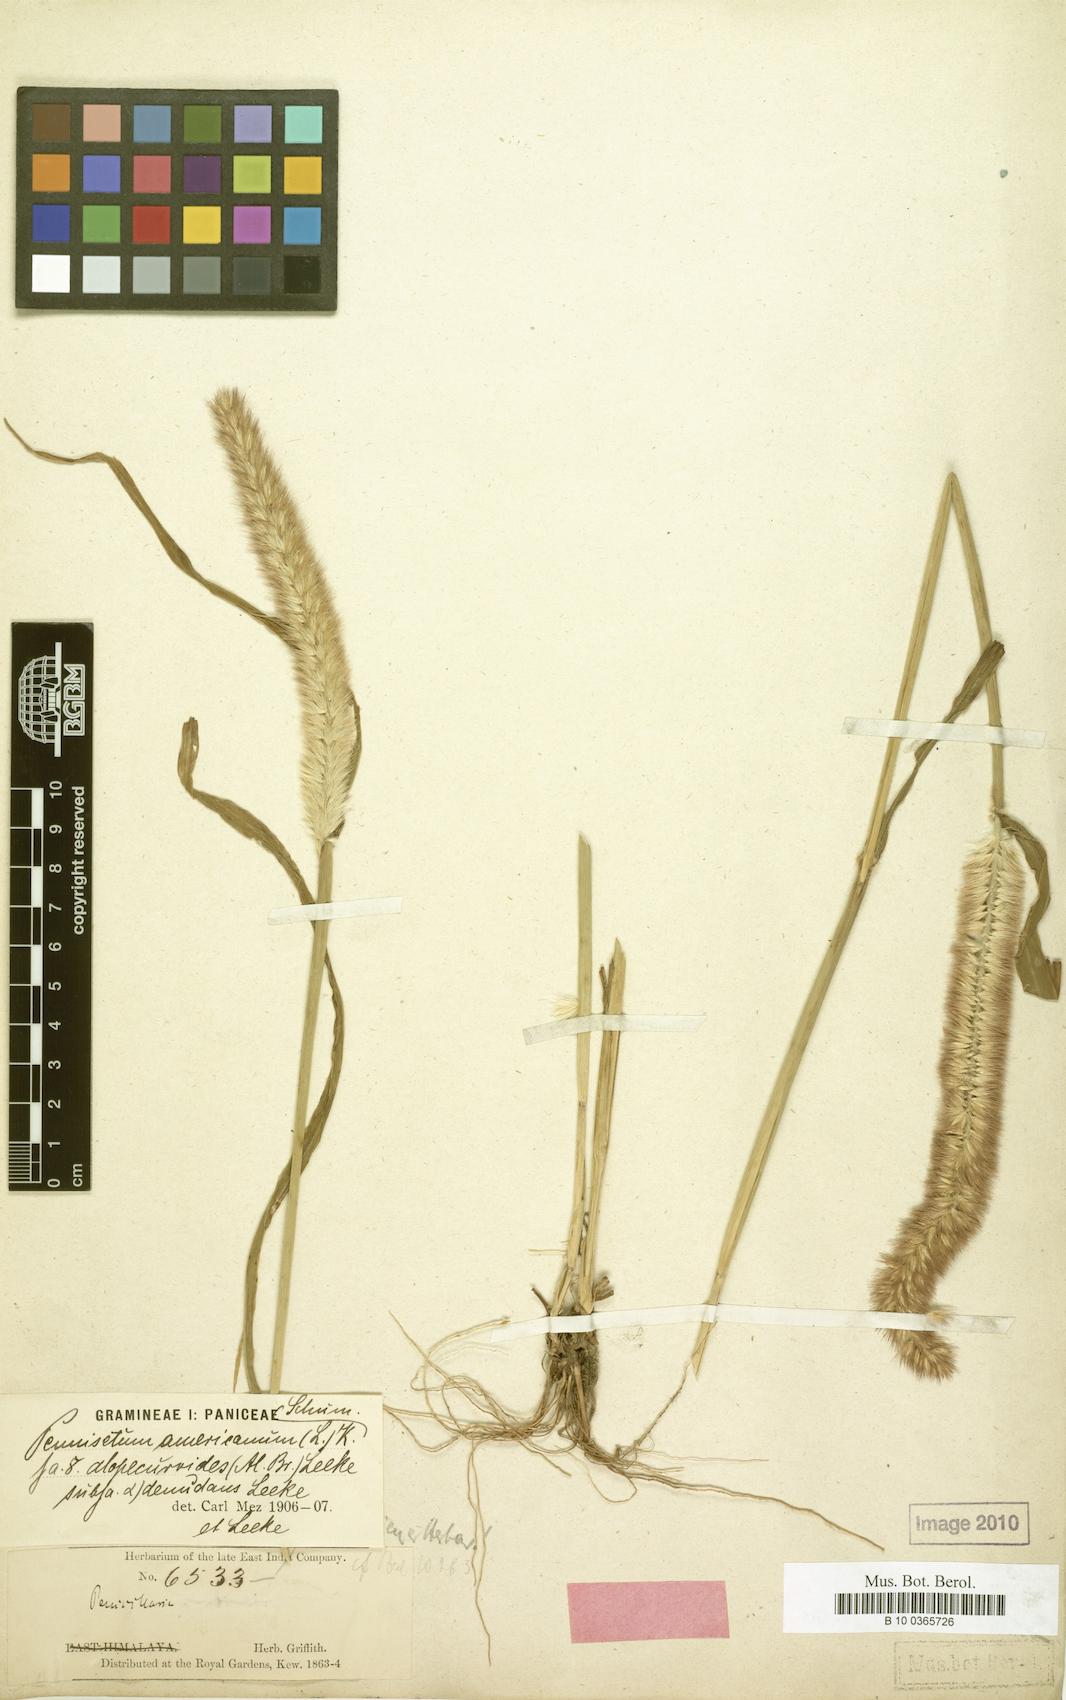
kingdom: Plantae
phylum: Tracheophyta
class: Liliopsida
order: Poales
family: Poaceae
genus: Cenchrus
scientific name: Cenchrus americanus
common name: Pearl millet
